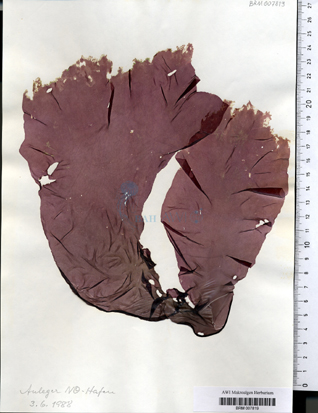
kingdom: Plantae
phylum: Rhodophyta
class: Bangiophyceae
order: Bangiales
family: Bangiaceae
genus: Porphyra
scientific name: Porphyra umbilicalis
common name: Purple laver
